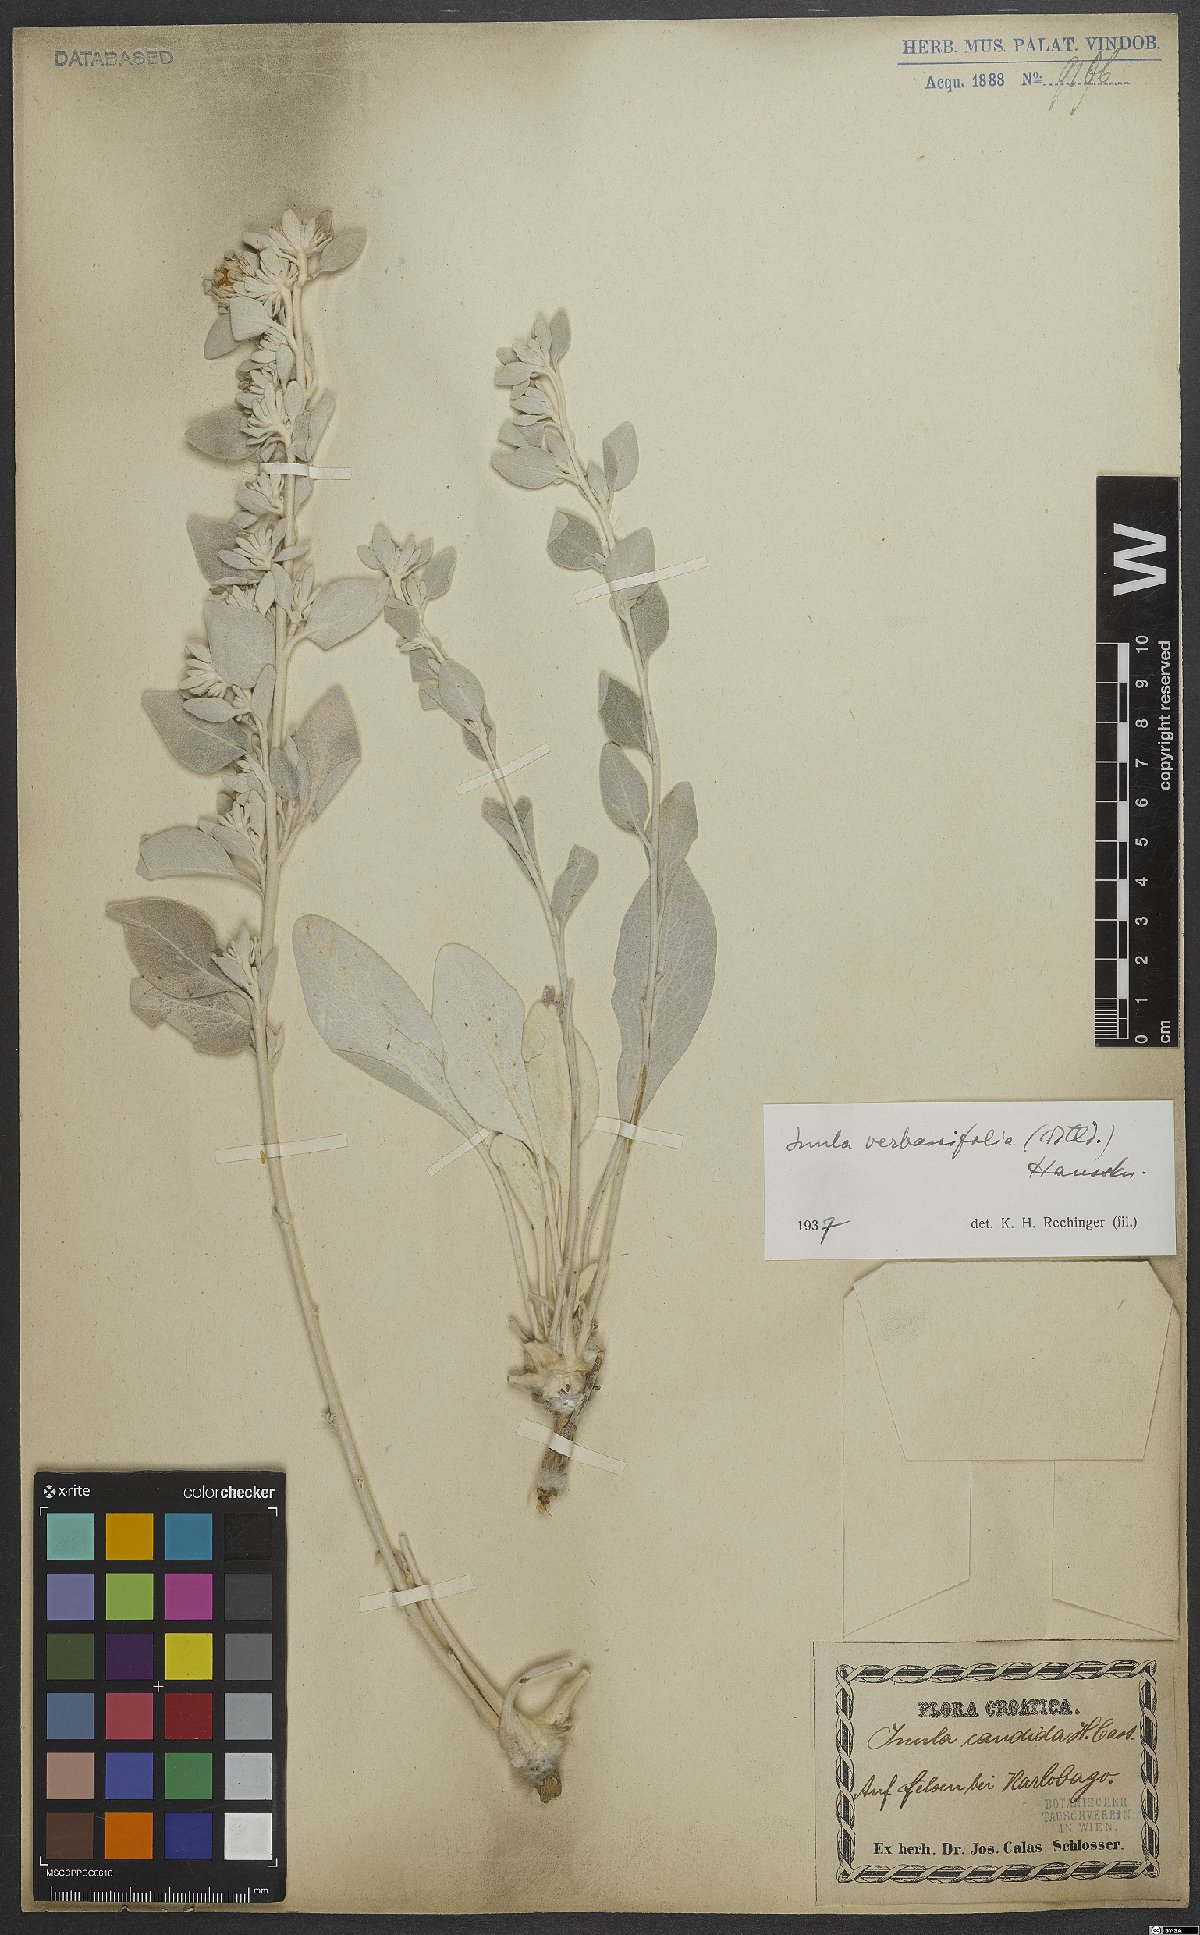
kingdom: Plantae
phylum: Tracheophyta
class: Magnoliopsida
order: Asterales
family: Asteraceae
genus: Pentanema
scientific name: Pentanema verbascifolium
